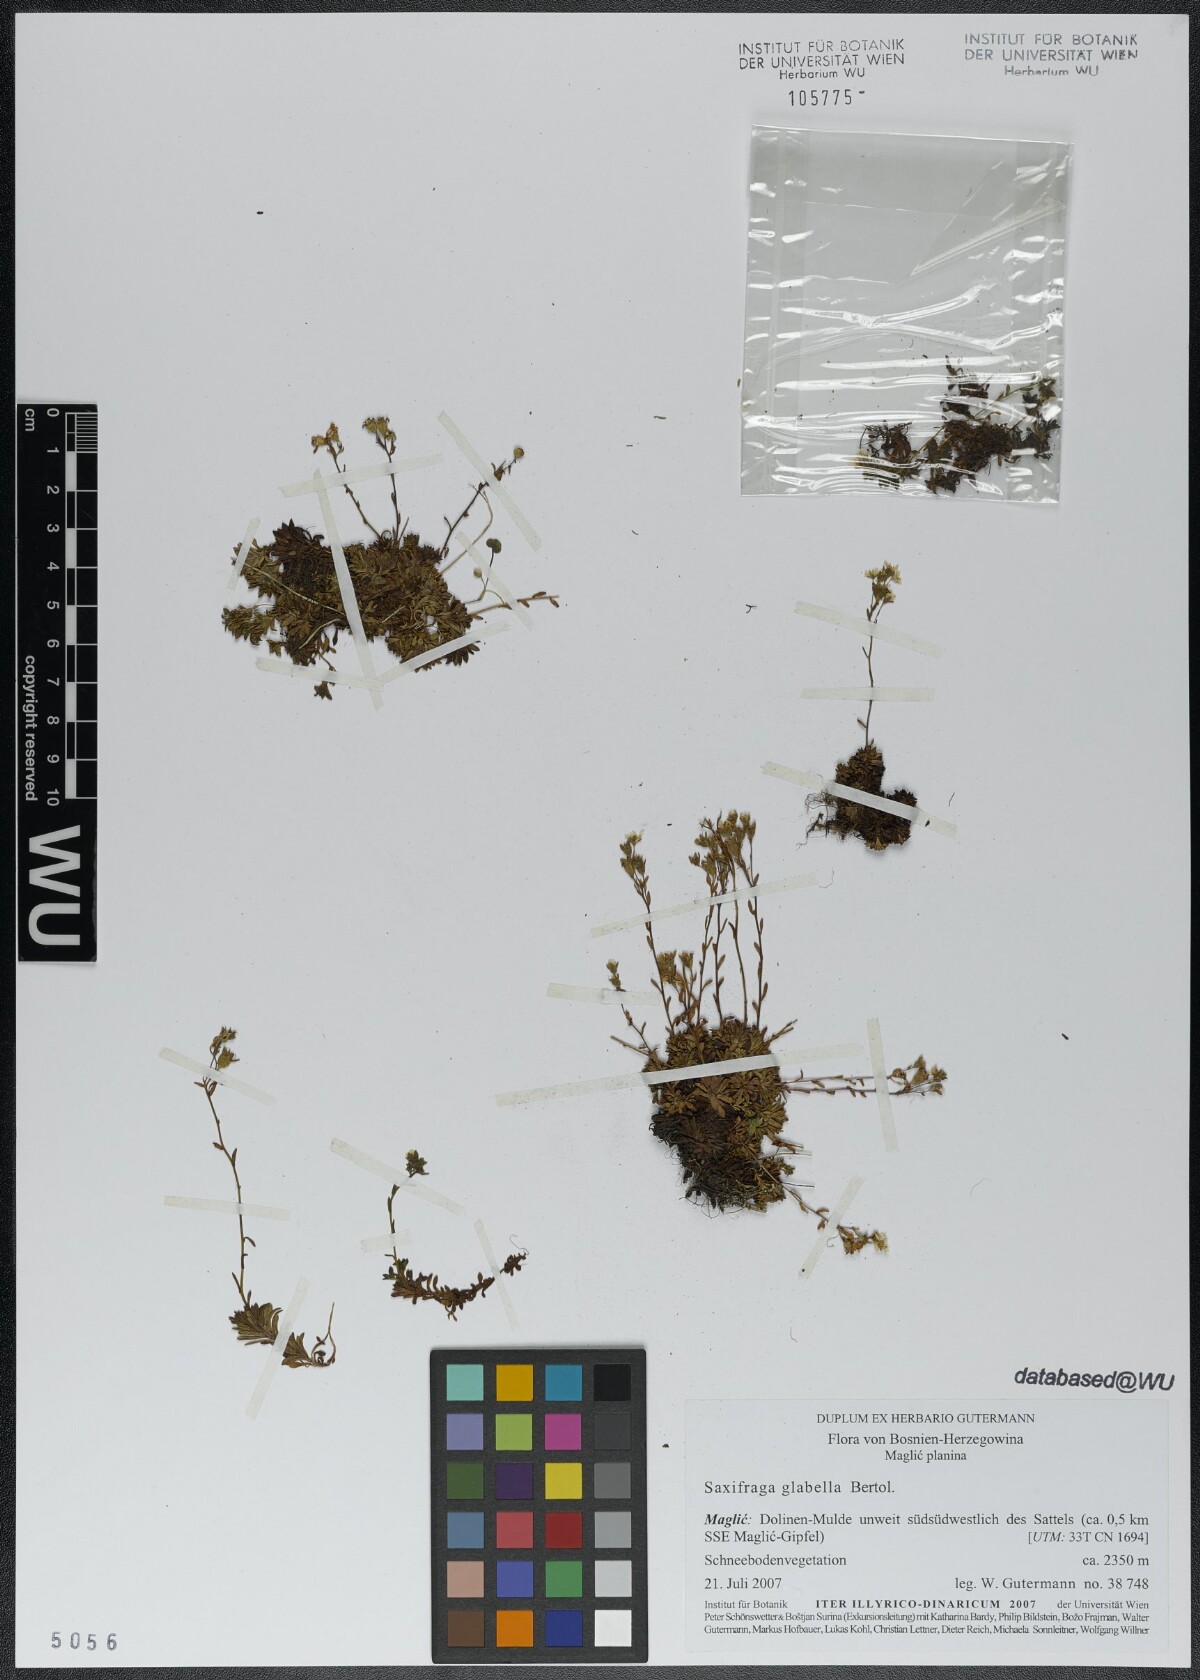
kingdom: Plantae
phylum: Tracheophyta
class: Magnoliopsida
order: Saxifragales
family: Saxifragaceae
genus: Saxifraga
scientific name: Saxifraga glabella
